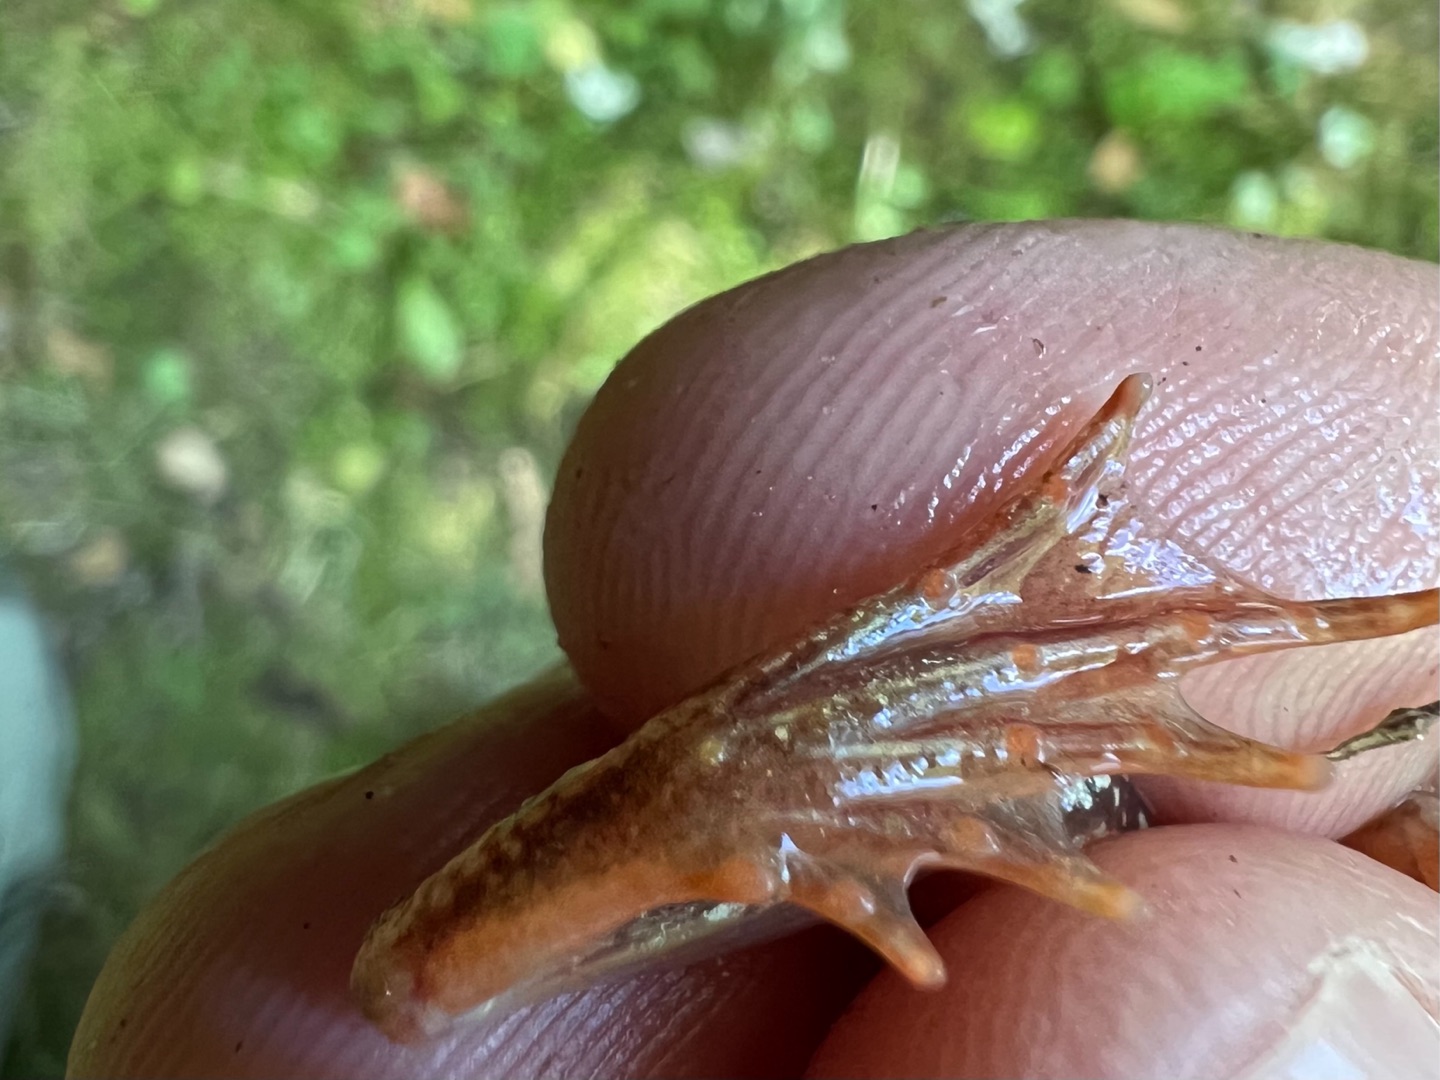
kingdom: Animalia
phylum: Chordata
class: Amphibia
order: Anura
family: Ranidae
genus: Rana
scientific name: Rana temporaria
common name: Butsnudet frø
